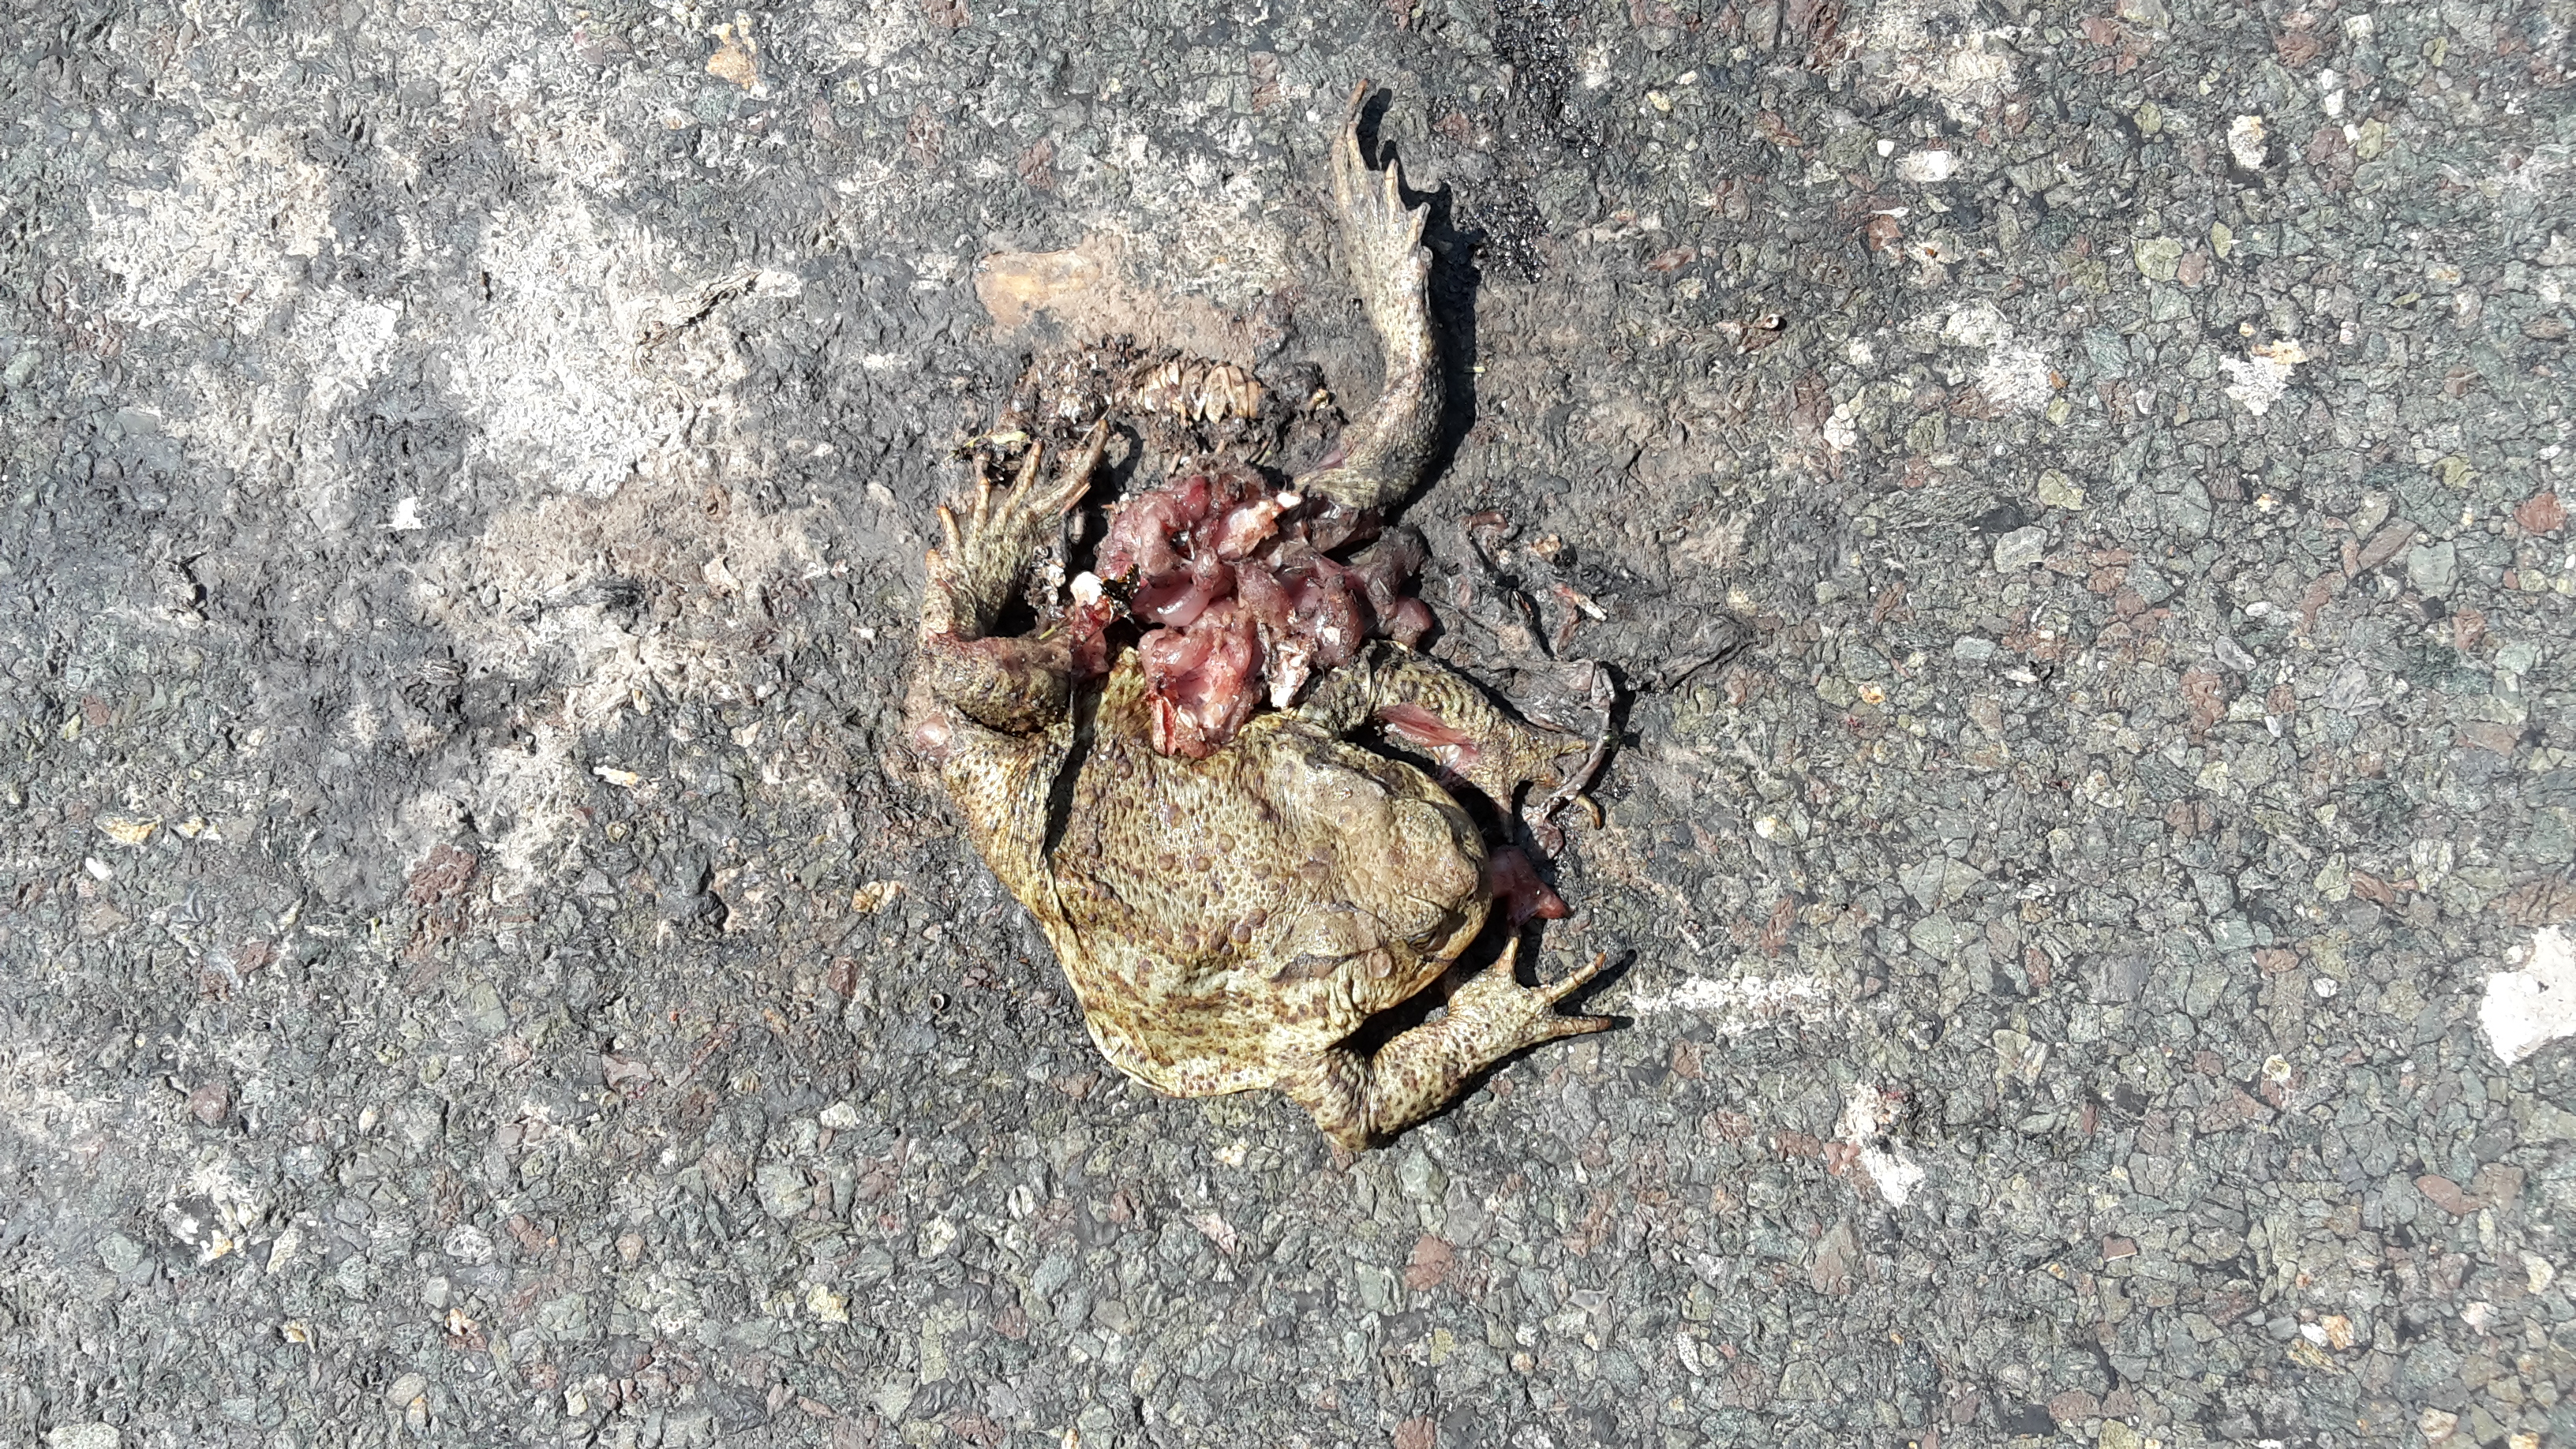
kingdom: Animalia
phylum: Chordata
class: Amphibia
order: Anura
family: Bufonidae
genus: Bufo
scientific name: Bufo bufo
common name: Common toad
